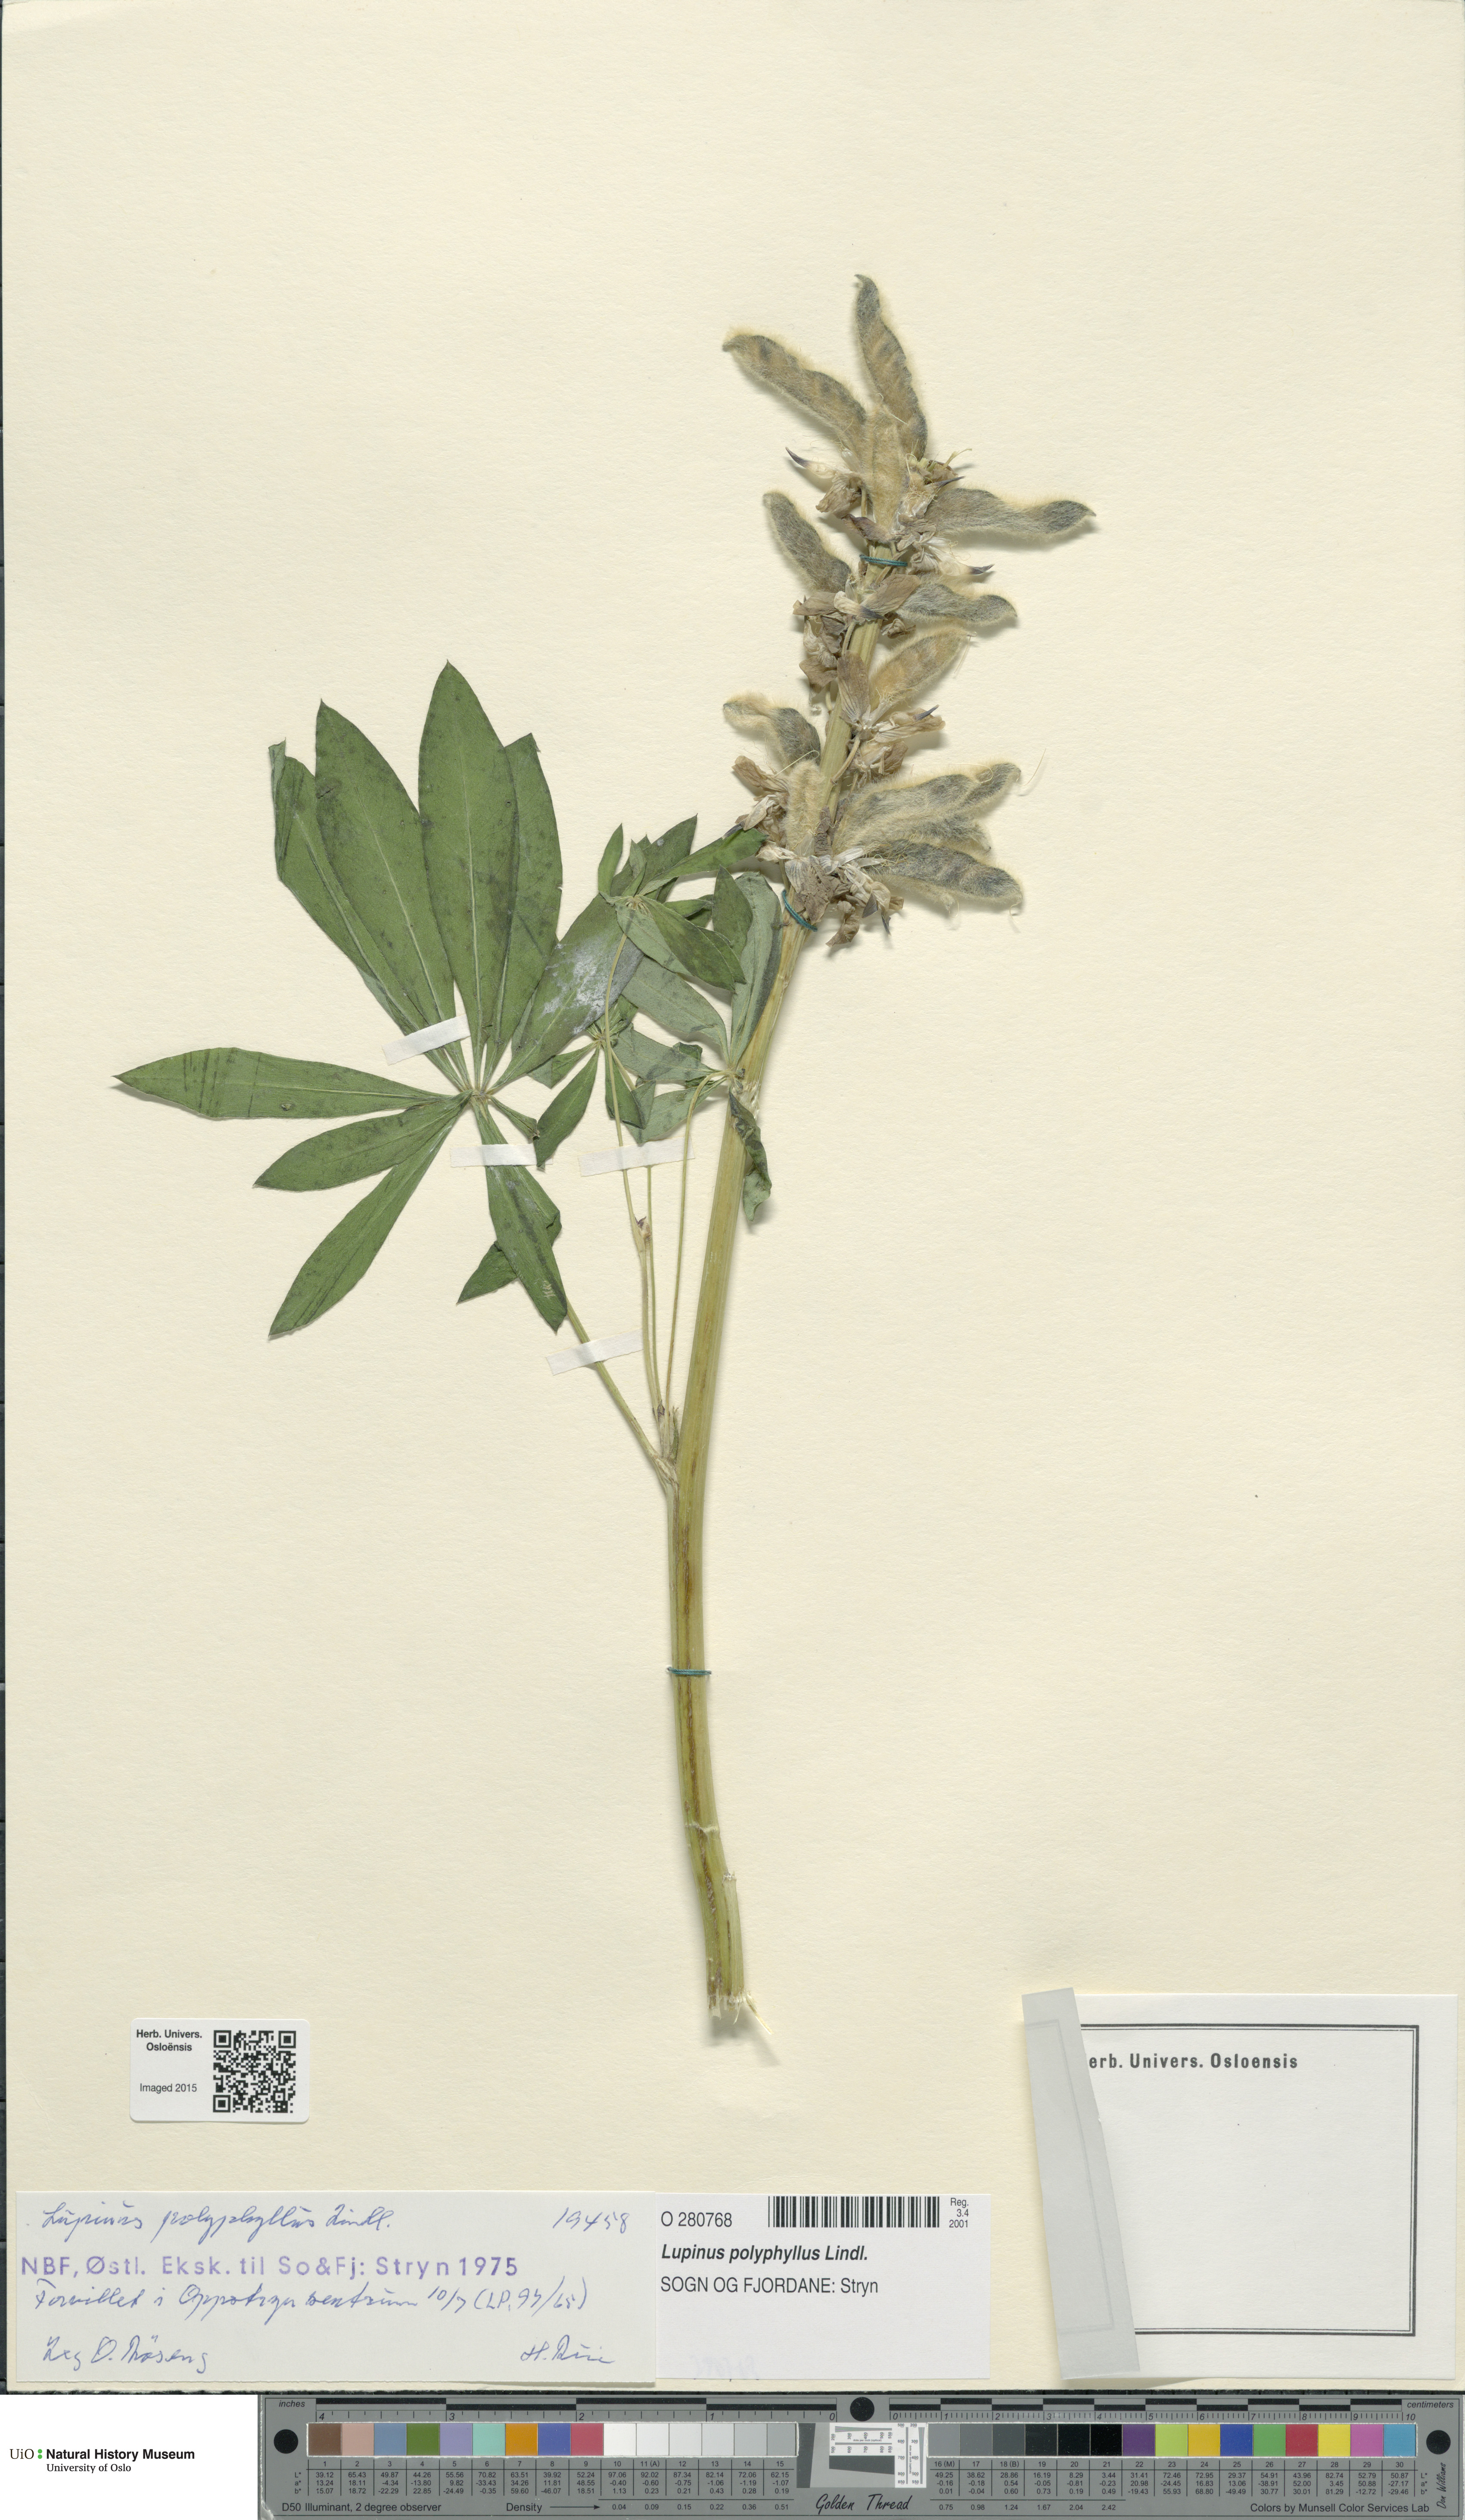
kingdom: Plantae
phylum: Tracheophyta
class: Magnoliopsida
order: Fabales
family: Fabaceae
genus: Lupinus
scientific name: Lupinus polyphyllus
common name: Garden lupin
